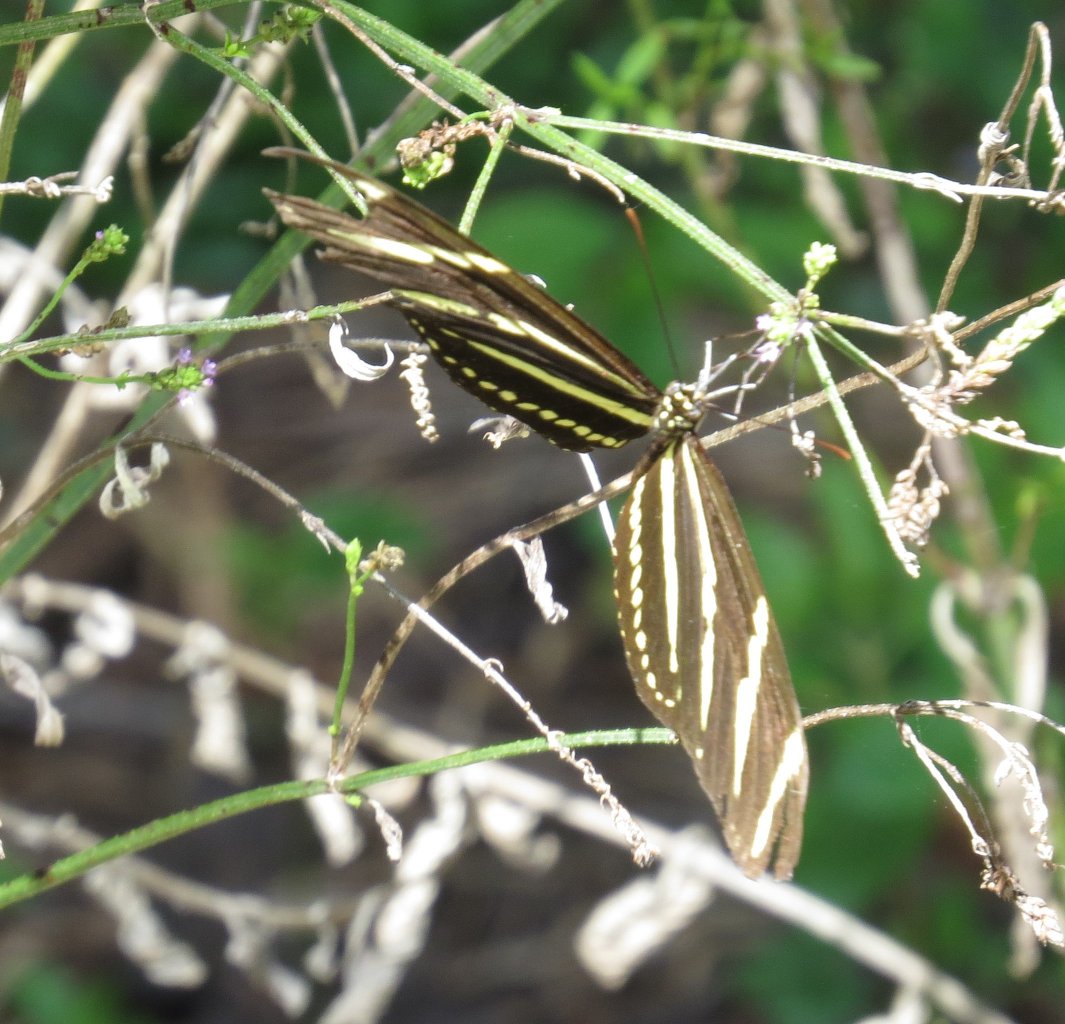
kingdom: Animalia
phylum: Arthropoda
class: Insecta
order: Lepidoptera
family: Nymphalidae
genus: Heliconius
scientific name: Heliconius charithonia
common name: Zebra Longwing
